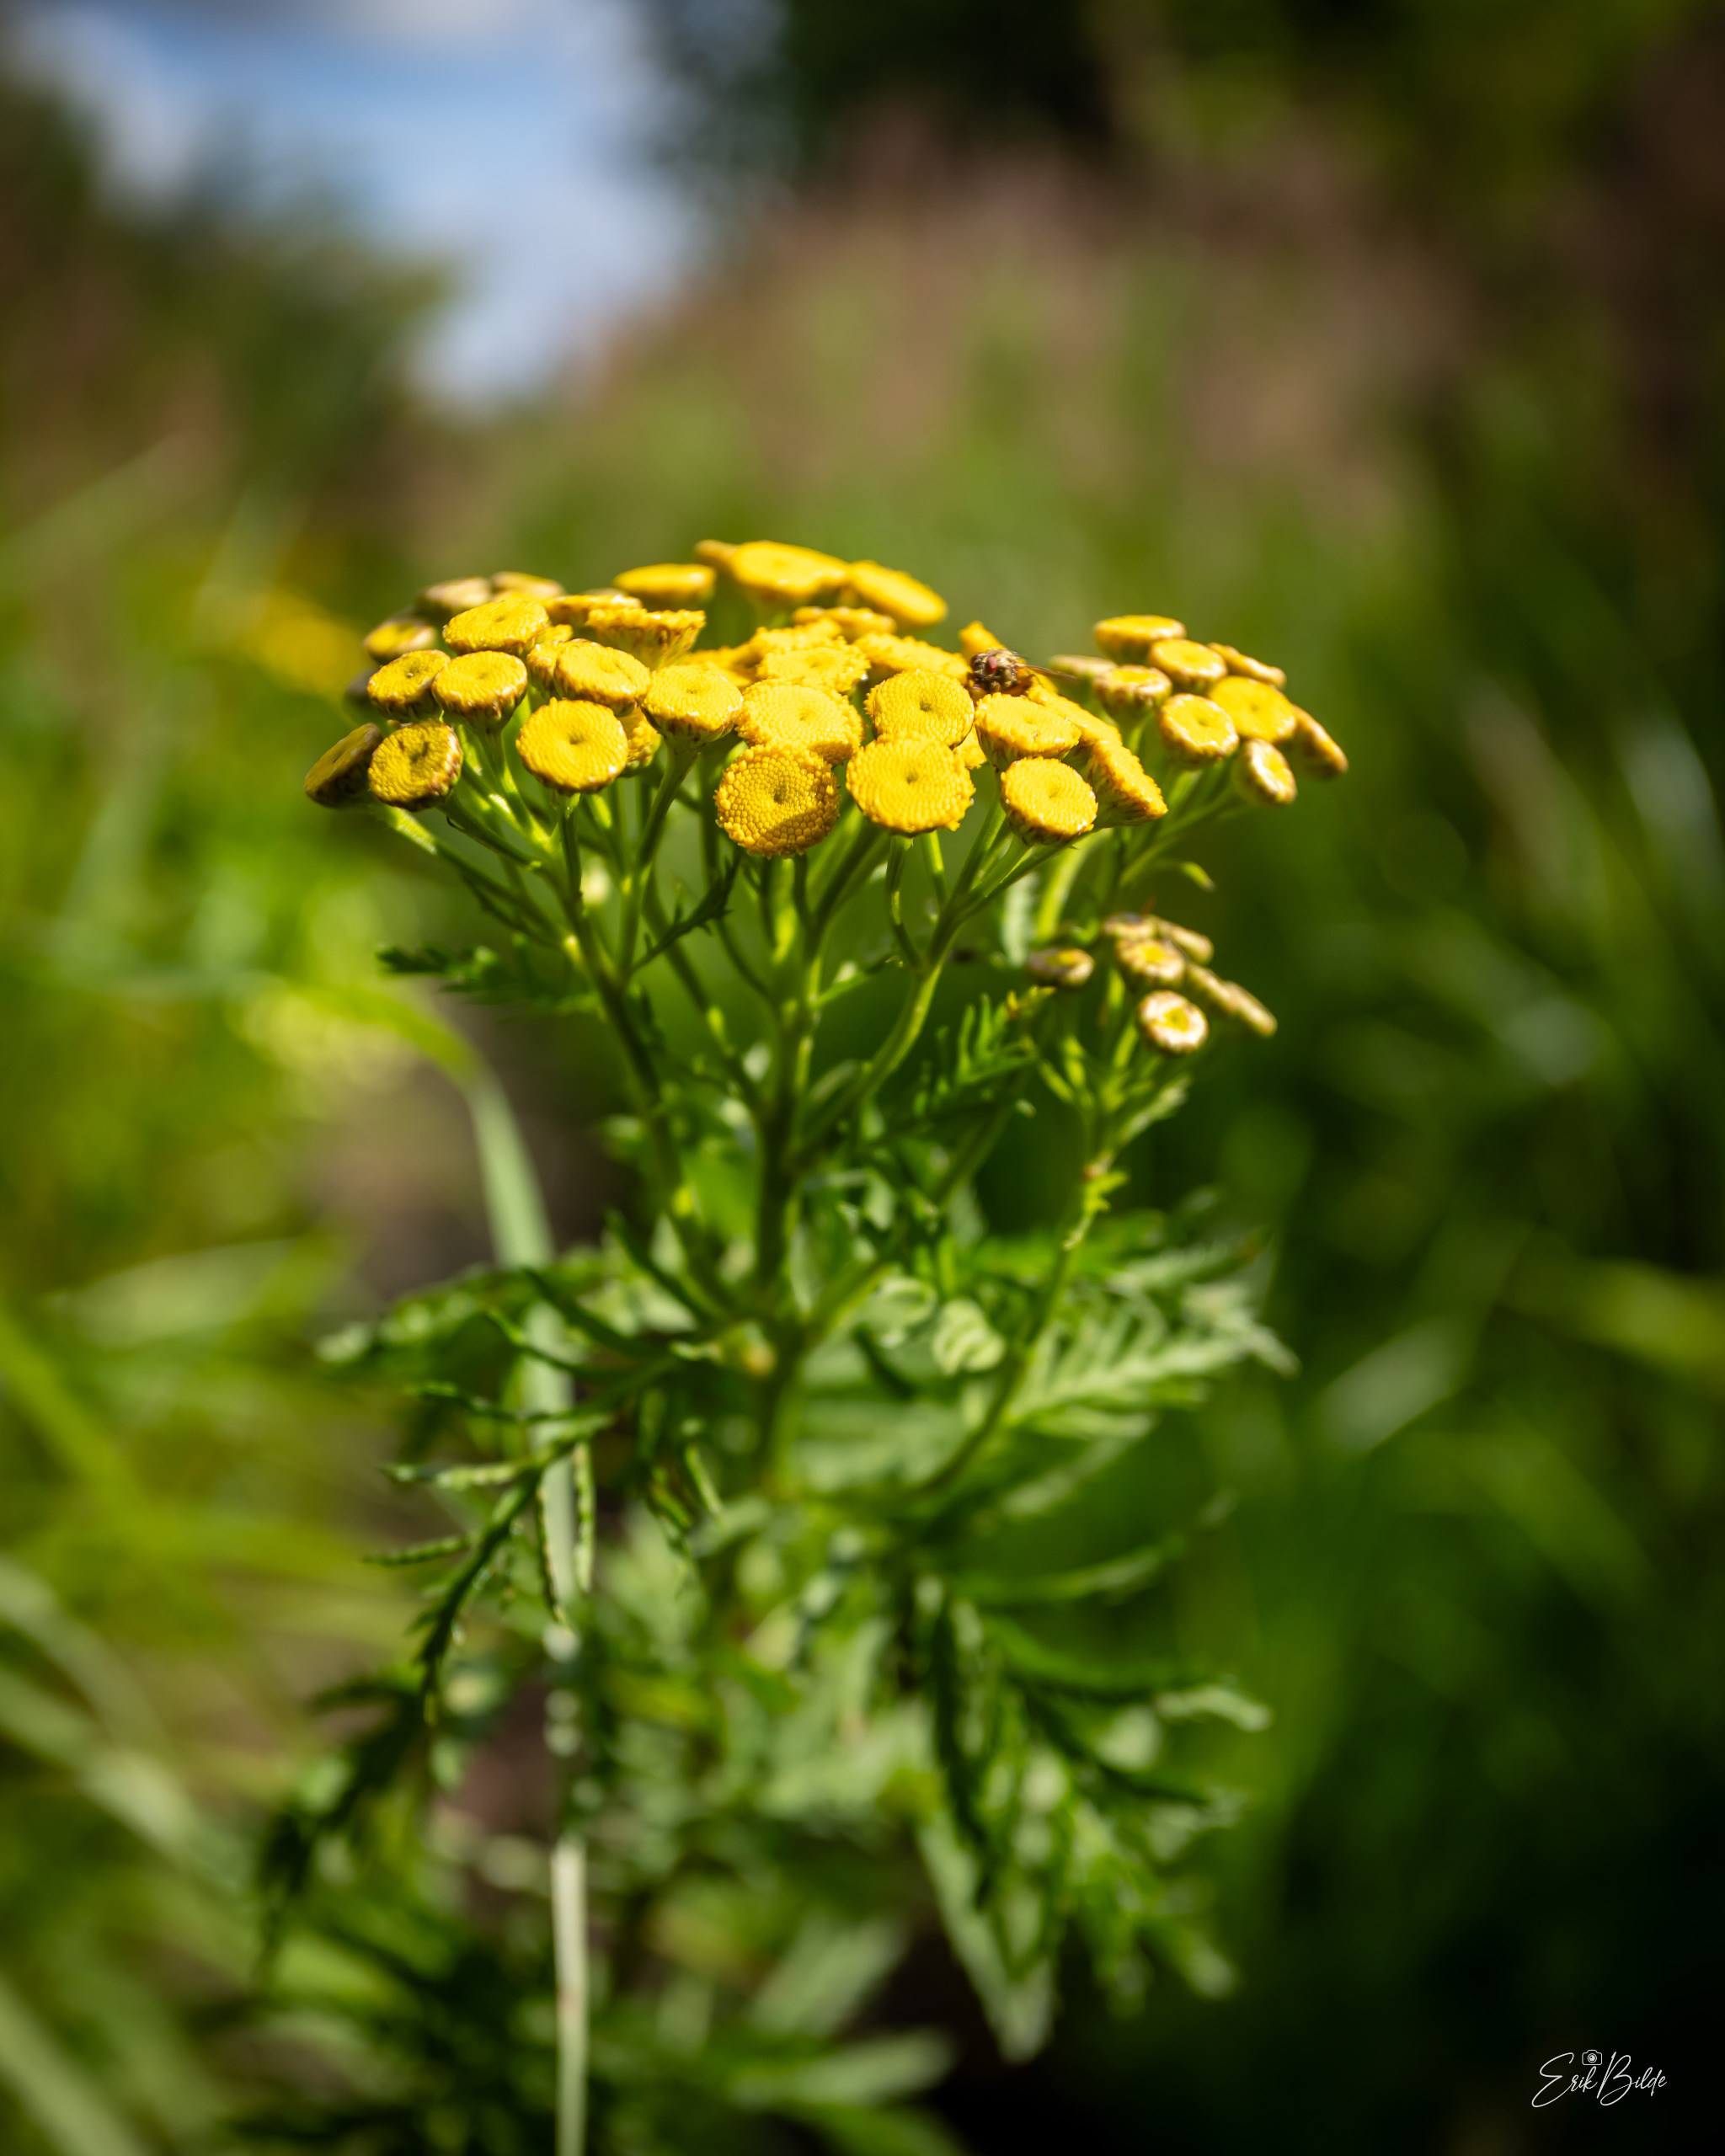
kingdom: Plantae
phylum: Tracheophyta
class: Magnoliopsida
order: Asterales
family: Asteraceae
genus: Tanacetum
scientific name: Tanacetum vulgare
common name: Rejnfan
